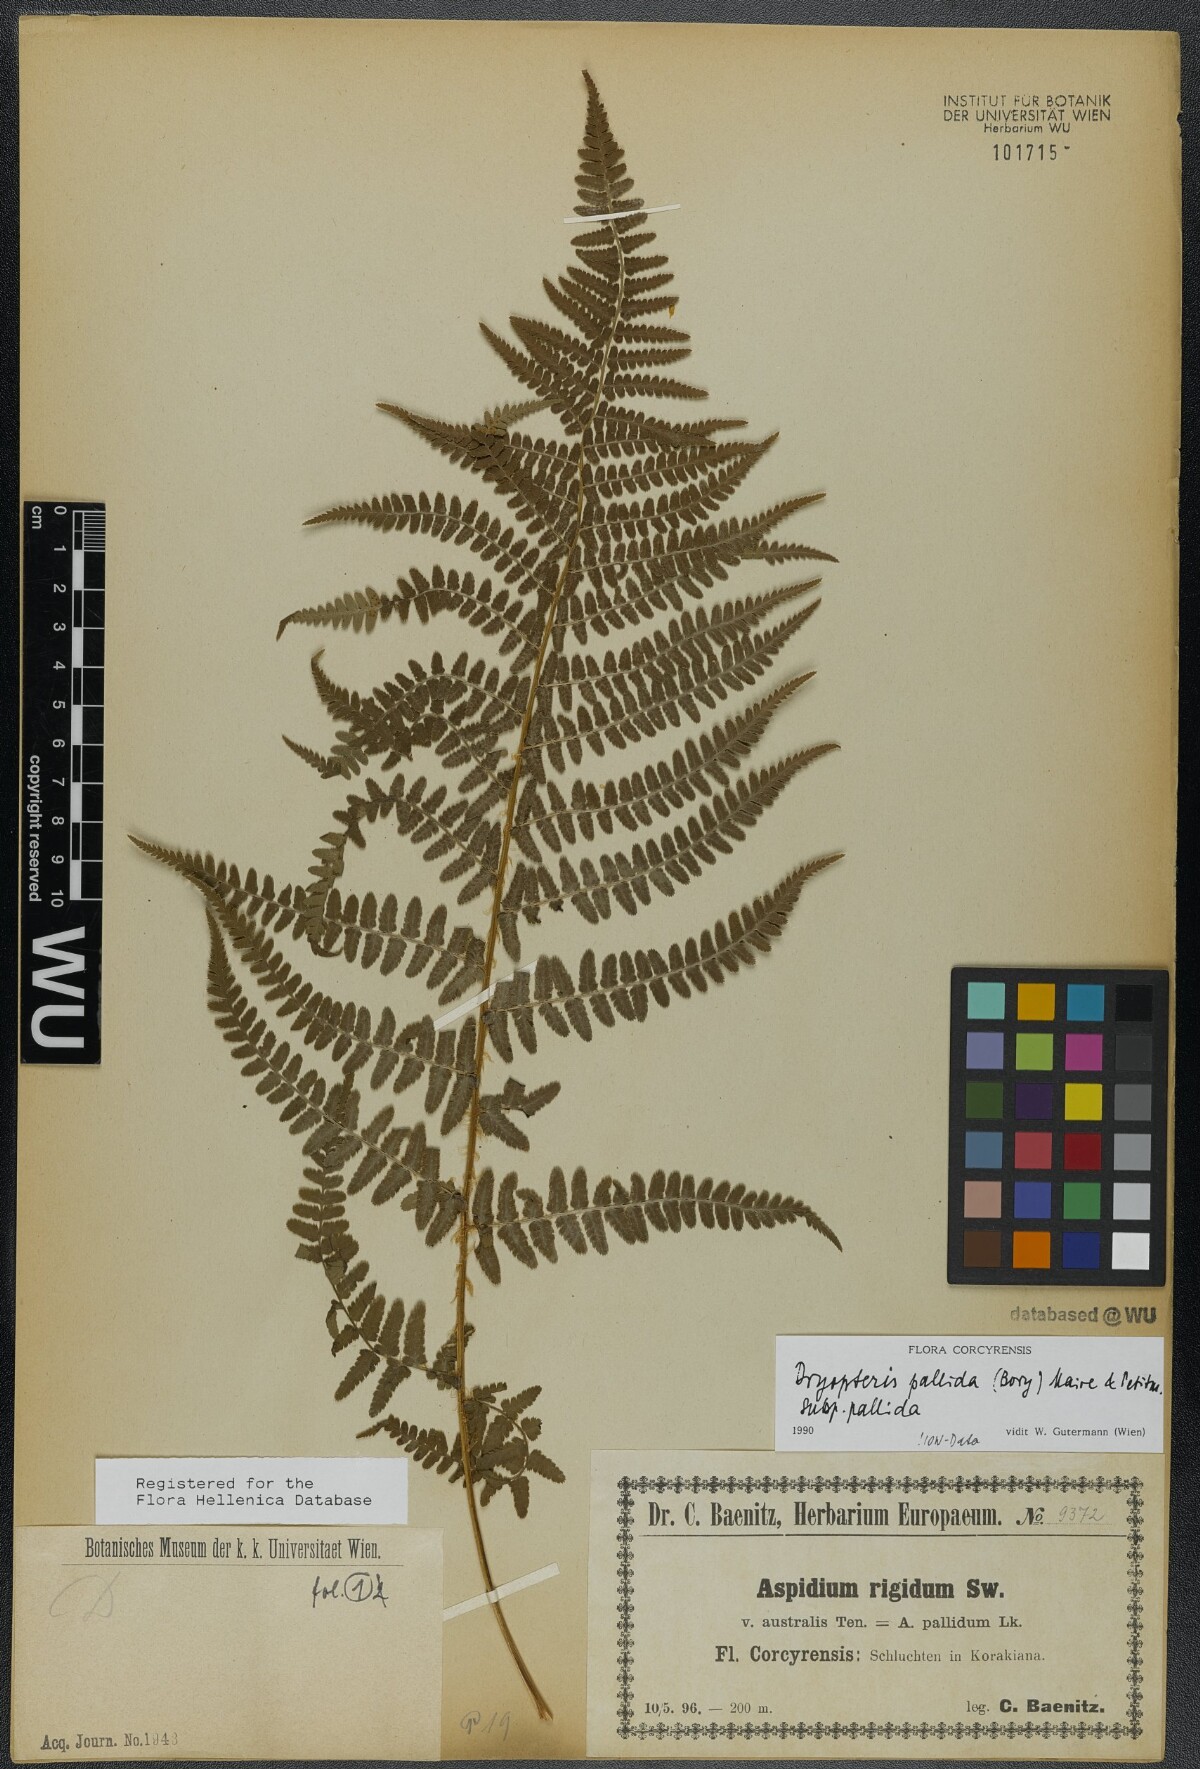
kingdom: Plantae
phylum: Tracheophyta
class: Polypodiopsida
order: Polypodiales
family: Dryopteridaceae
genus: Dryopteris
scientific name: Dryopteris pallida
